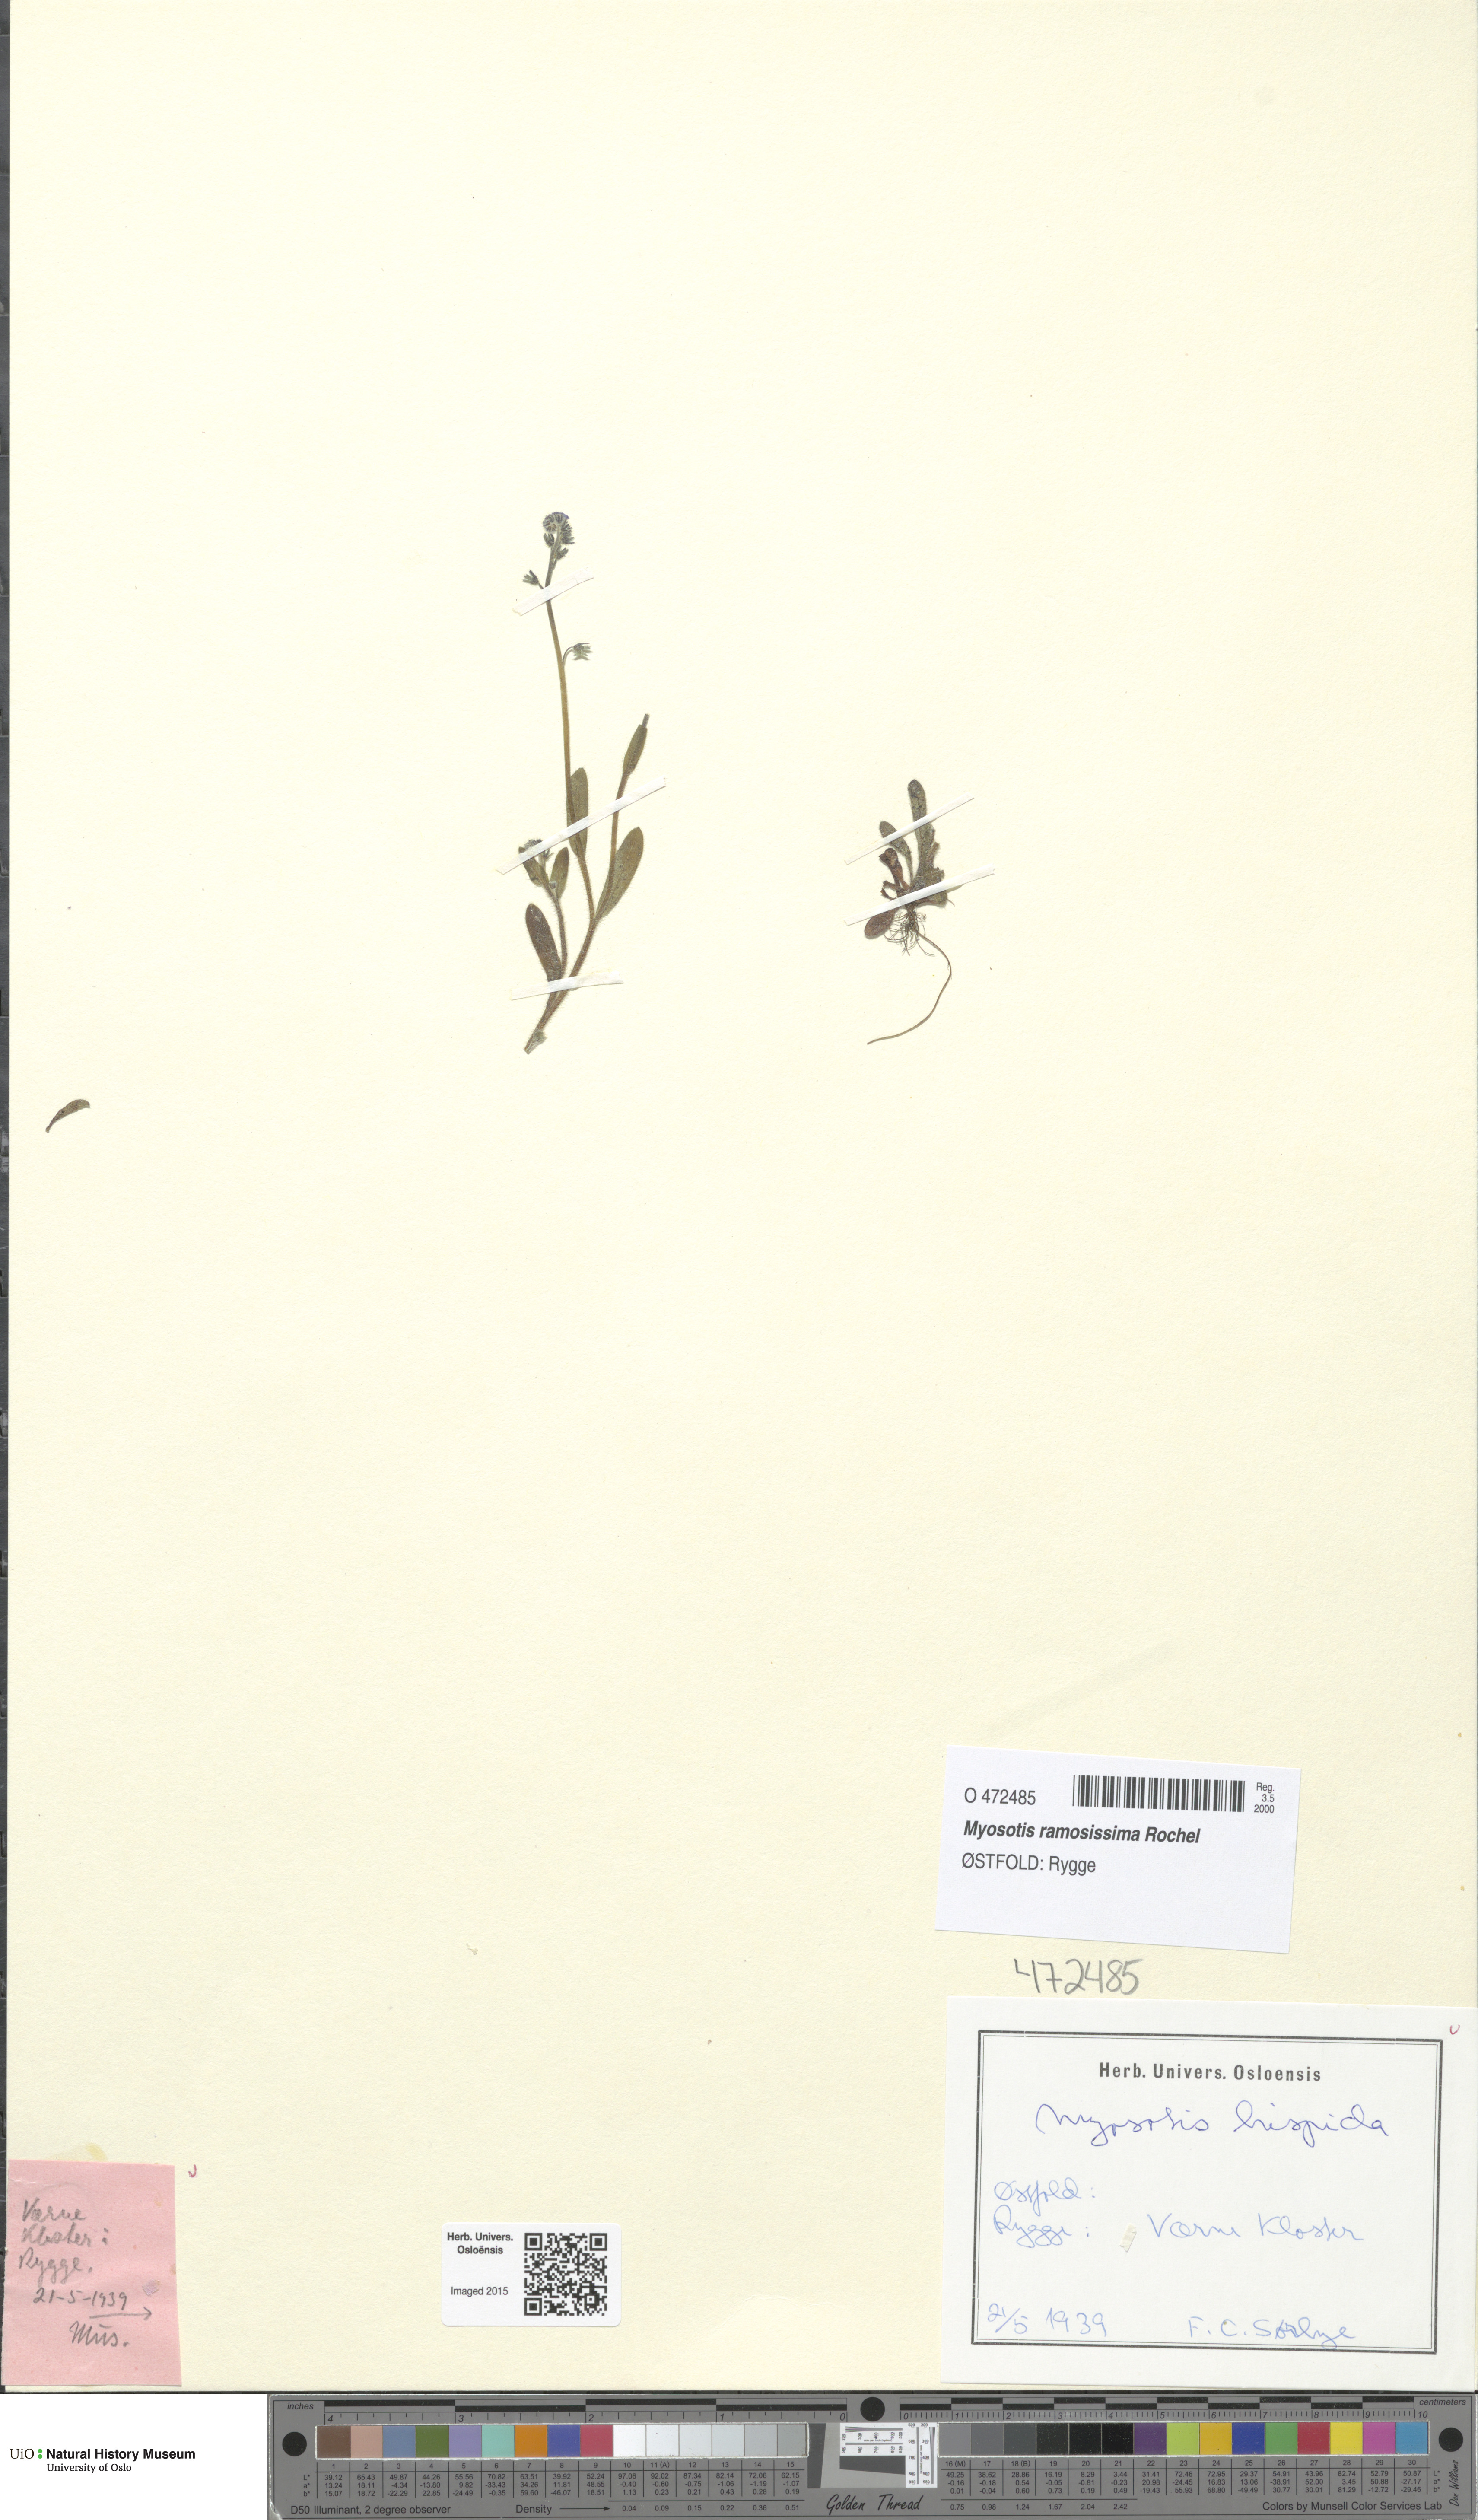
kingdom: Plantae
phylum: Tracheophyta
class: Magnoliopsida
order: Boraginales
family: Boraginaceae
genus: Myosotis
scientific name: Myosotis ramosissima
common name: Early forget-me-not
